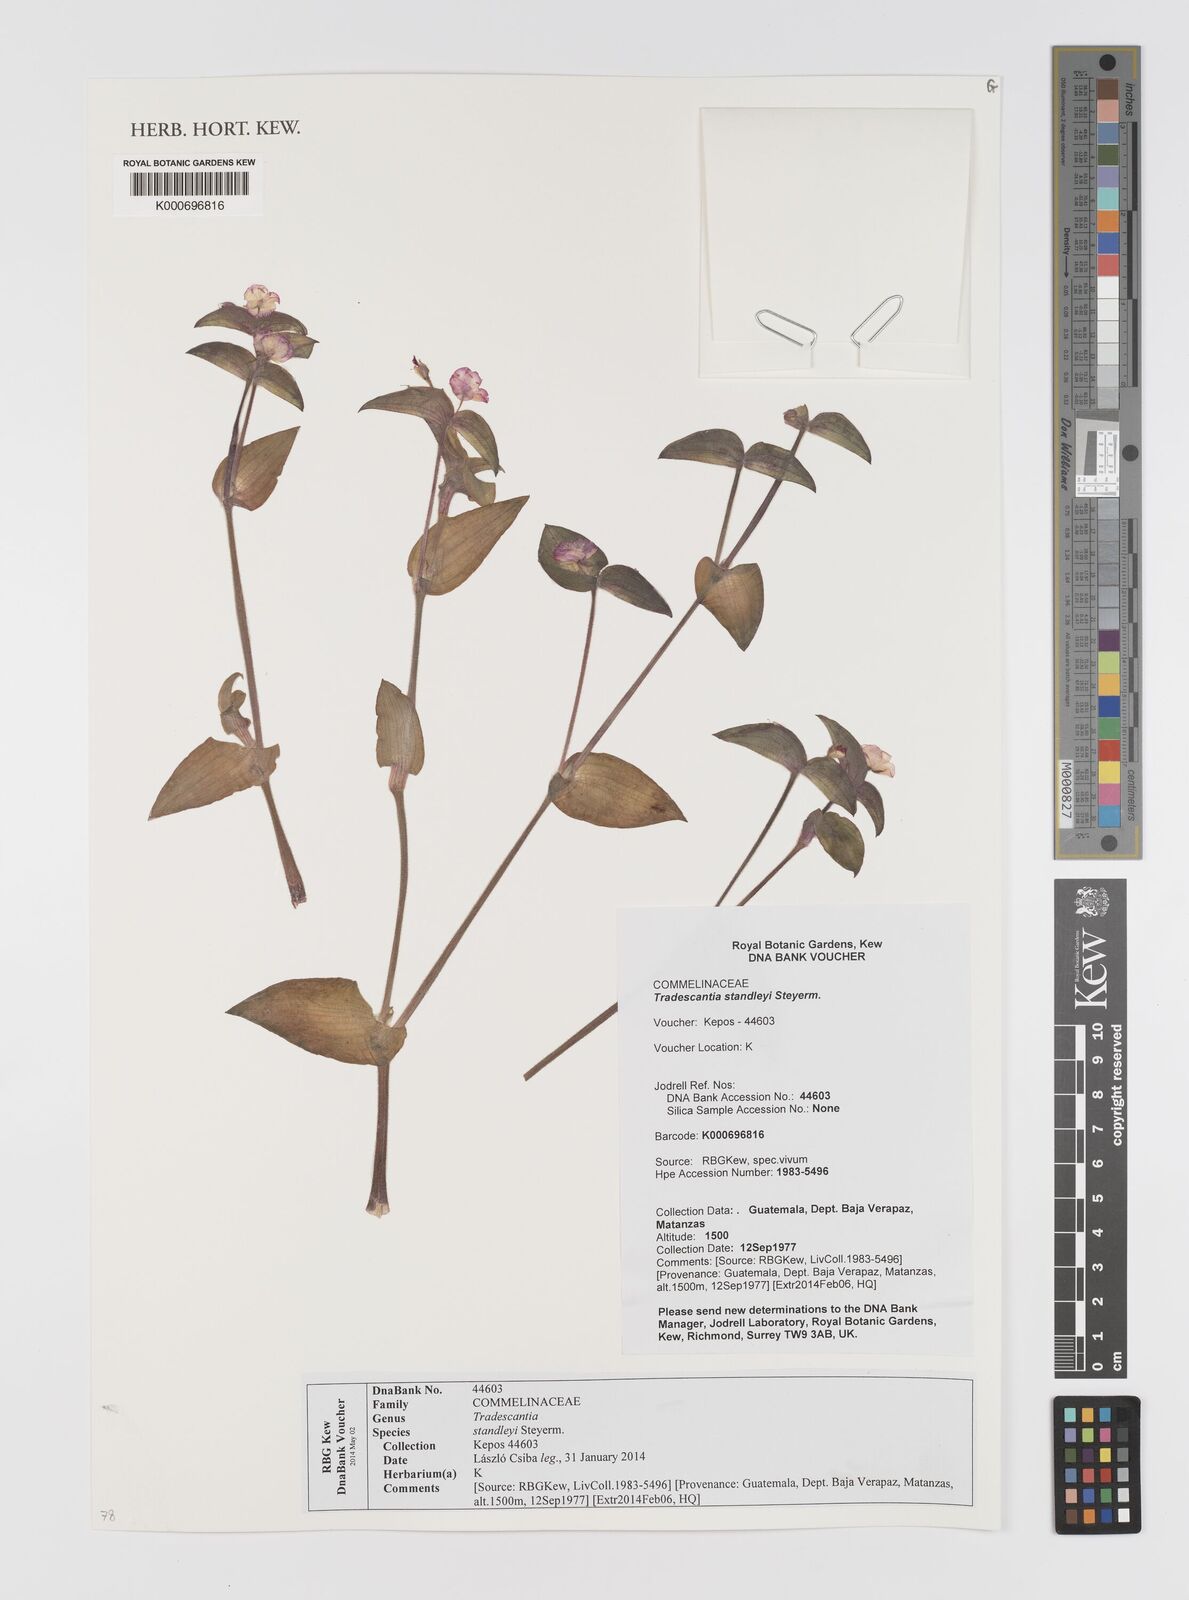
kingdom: Plantae
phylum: Tracheophyta
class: Liliopsida
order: Commelinales
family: Commelinaceae
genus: Tradescantia
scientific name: Tradescantia standleyi
